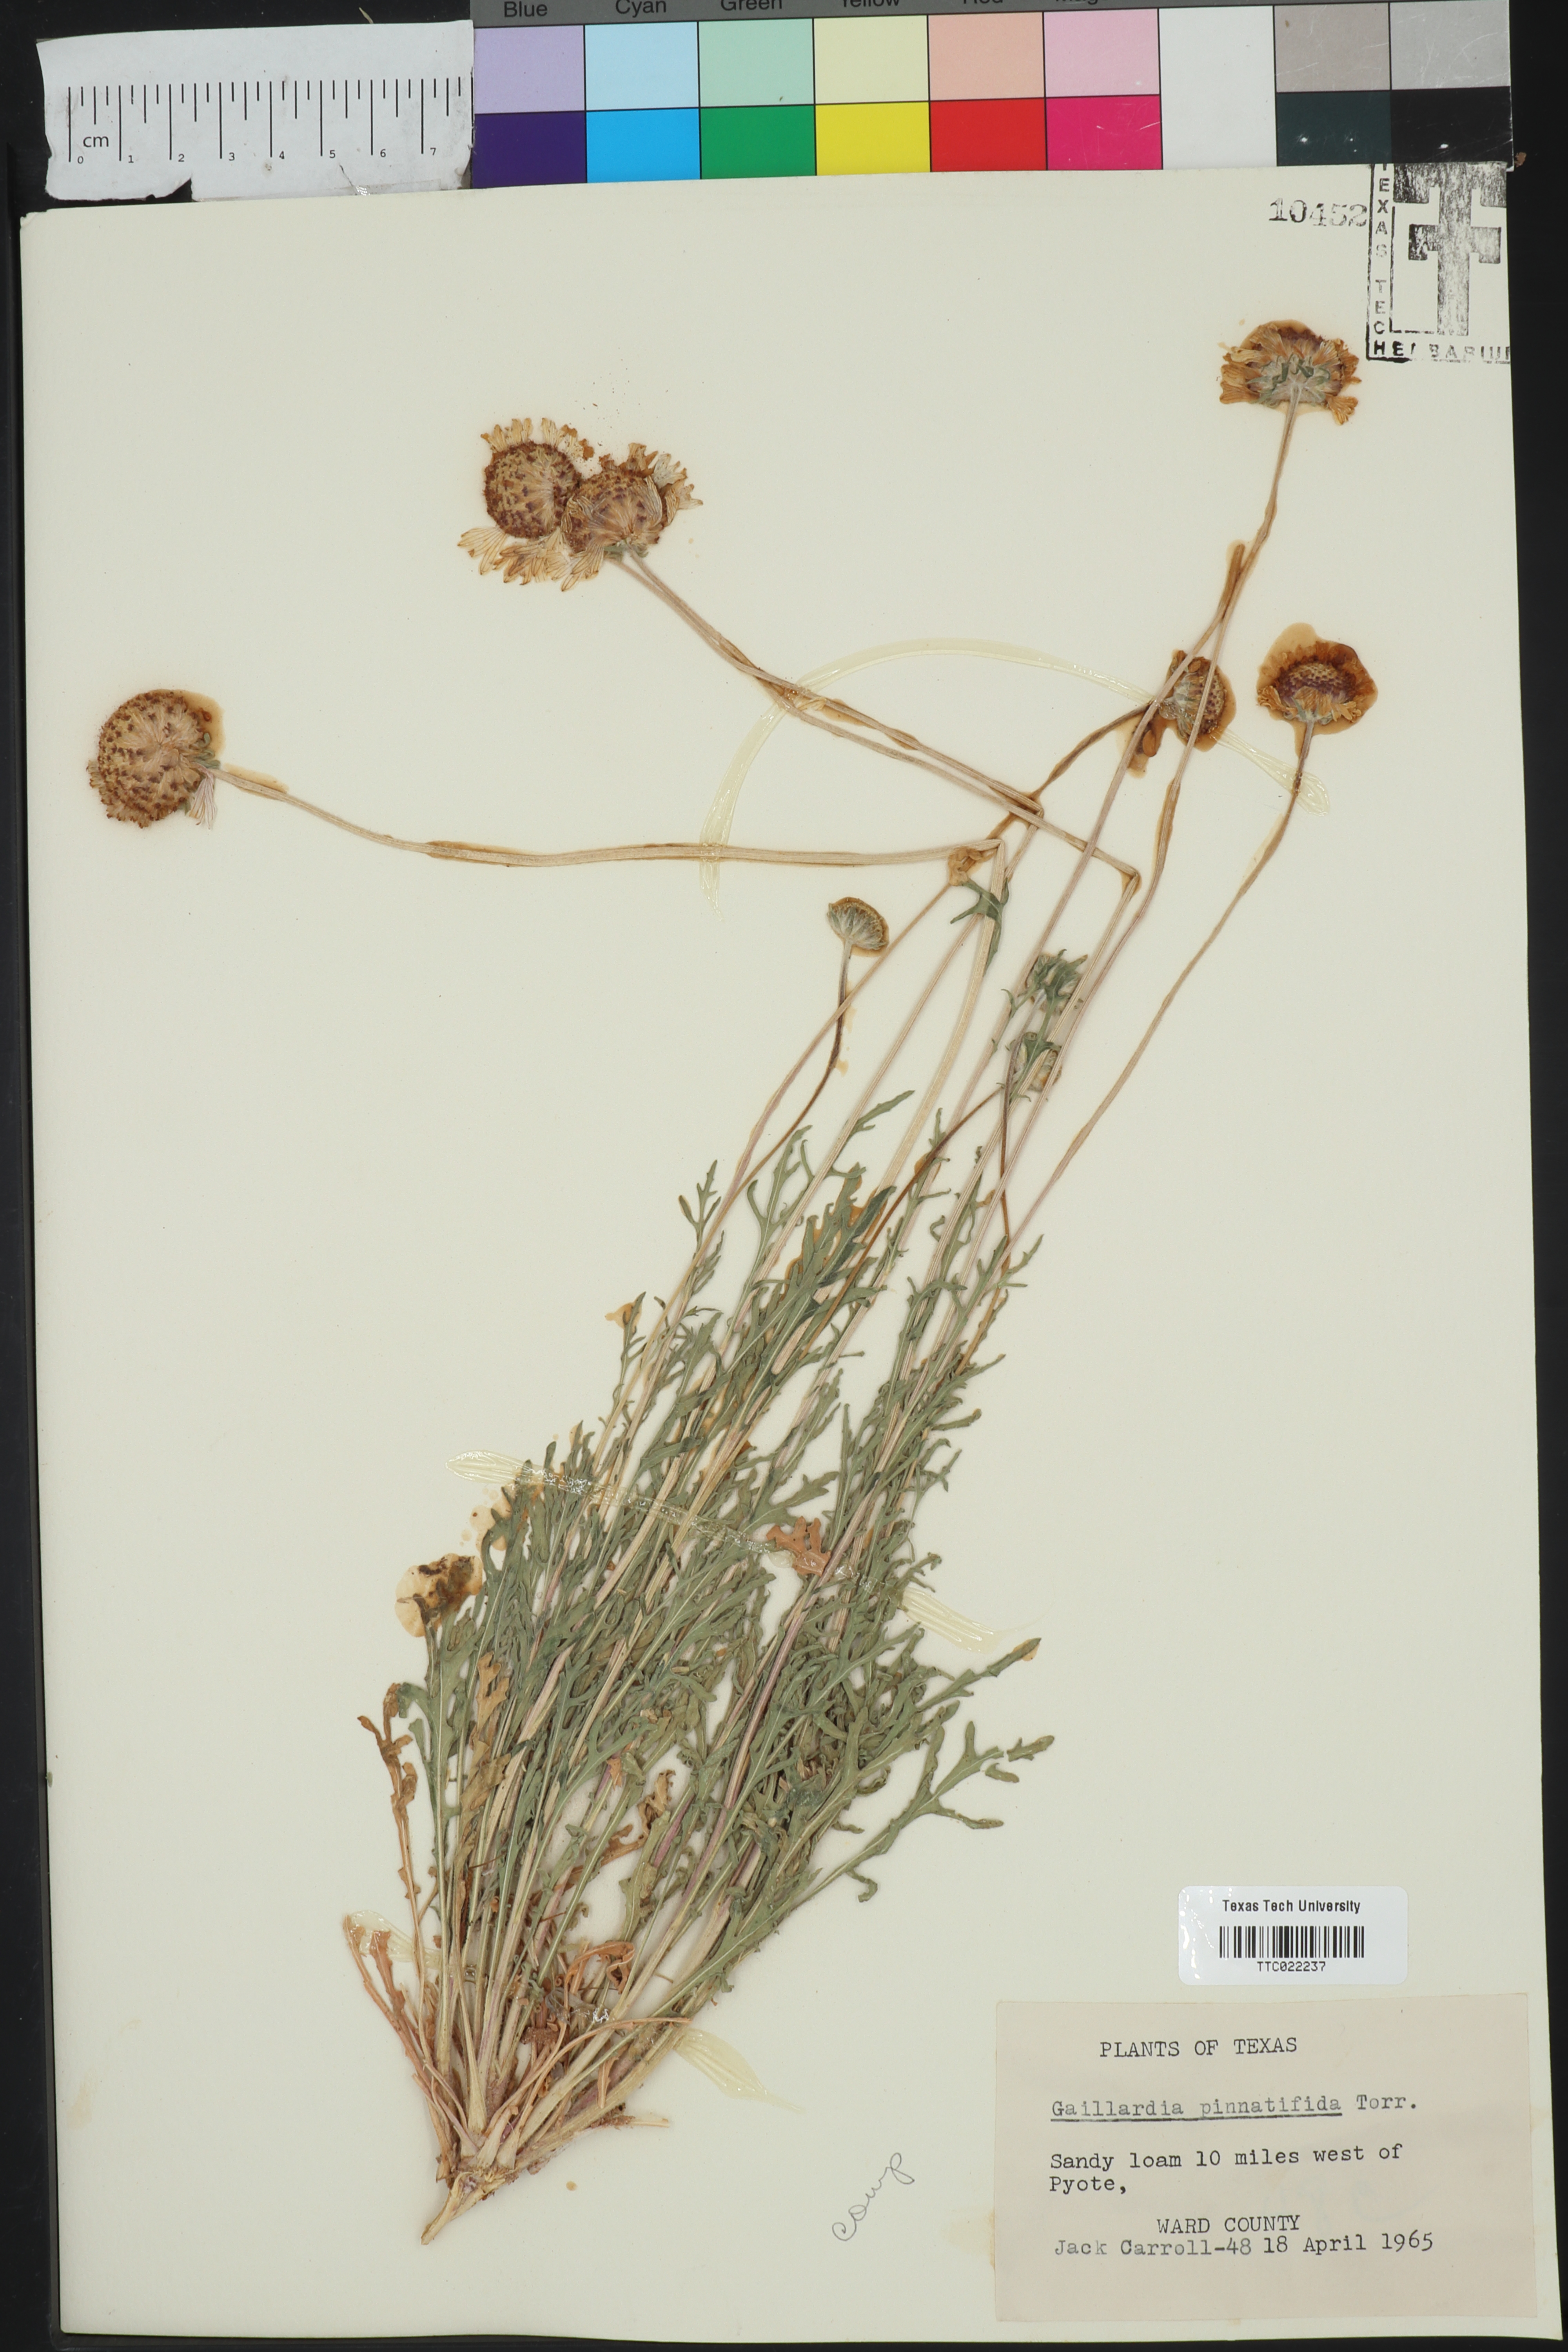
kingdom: Plantae
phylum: Tracheophyta
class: Magnoliopsida
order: Asterales
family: Asteraceae
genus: Gaillardia
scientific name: Gaillardia pinnatifida
